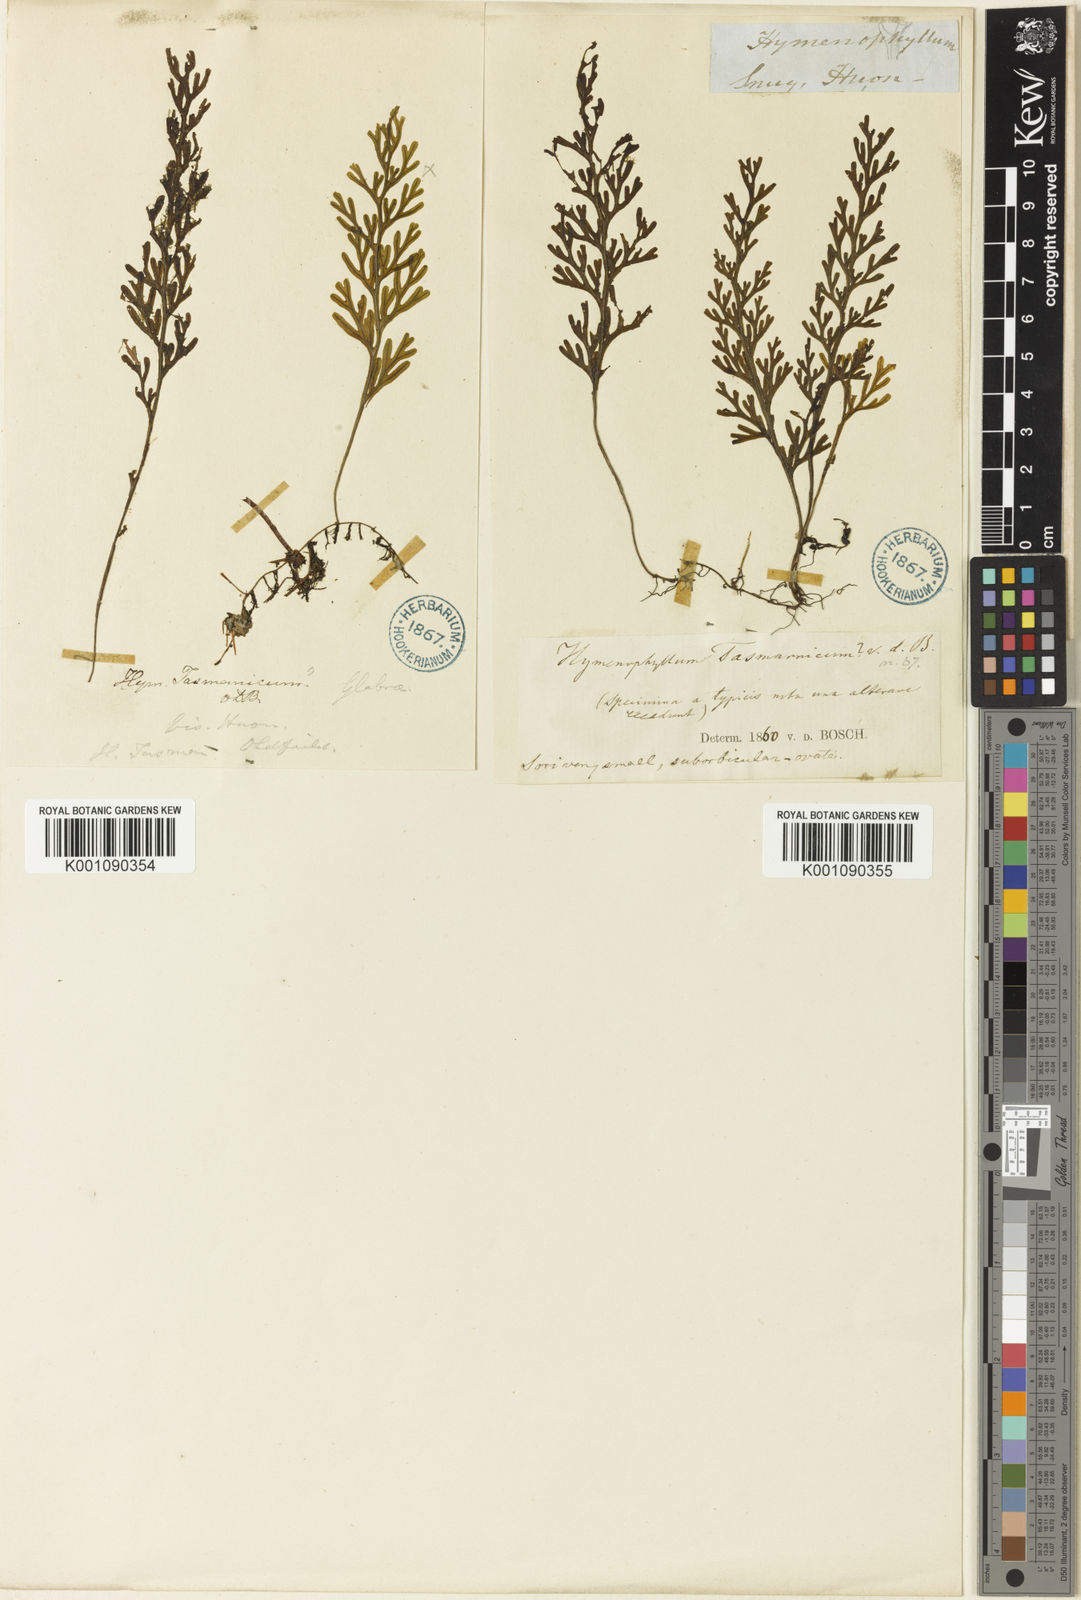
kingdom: Plantae
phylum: Tracheophyta
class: Polypodiopsida
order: Hymenophyllales
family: Hymenophyllaceae
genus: Hymenophyllum
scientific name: Hymenophyllum australe
